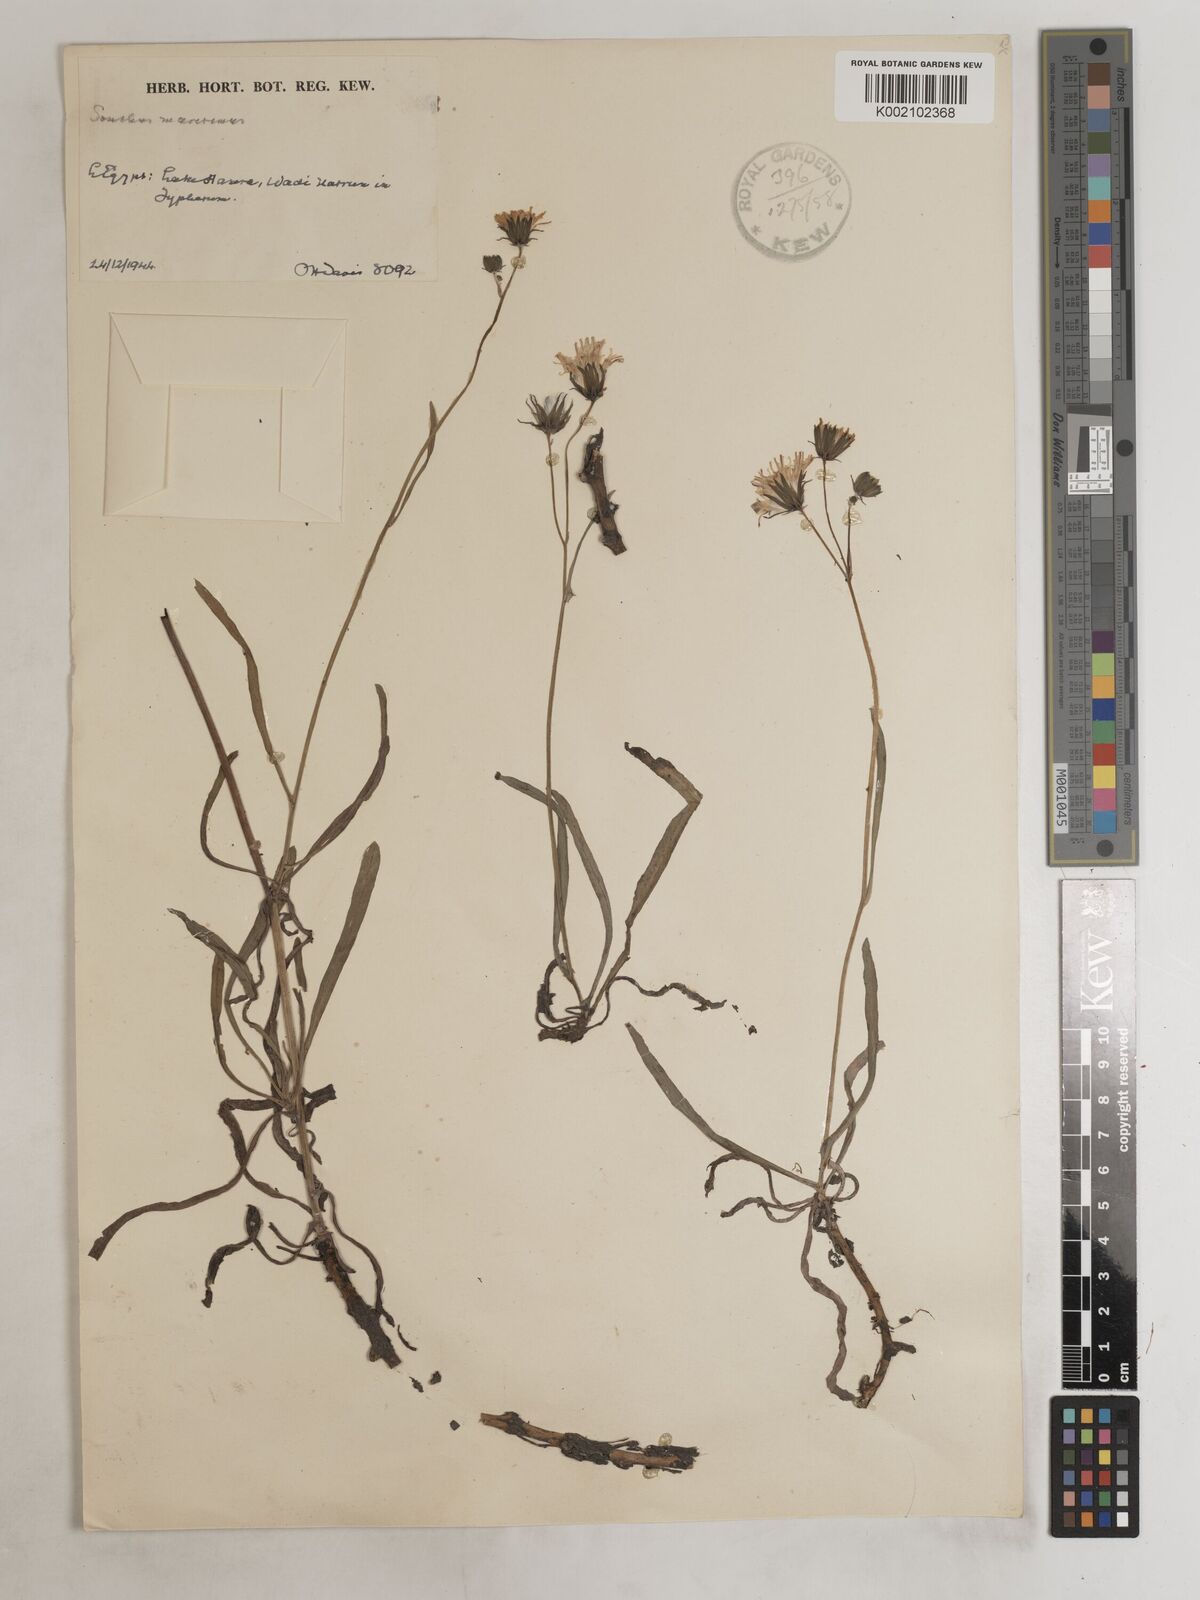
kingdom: Plantae
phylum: Tracheophyta
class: Magnoliopsida
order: Asterales
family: Asteraceae
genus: Sonchus
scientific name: Sonchus maritimus
